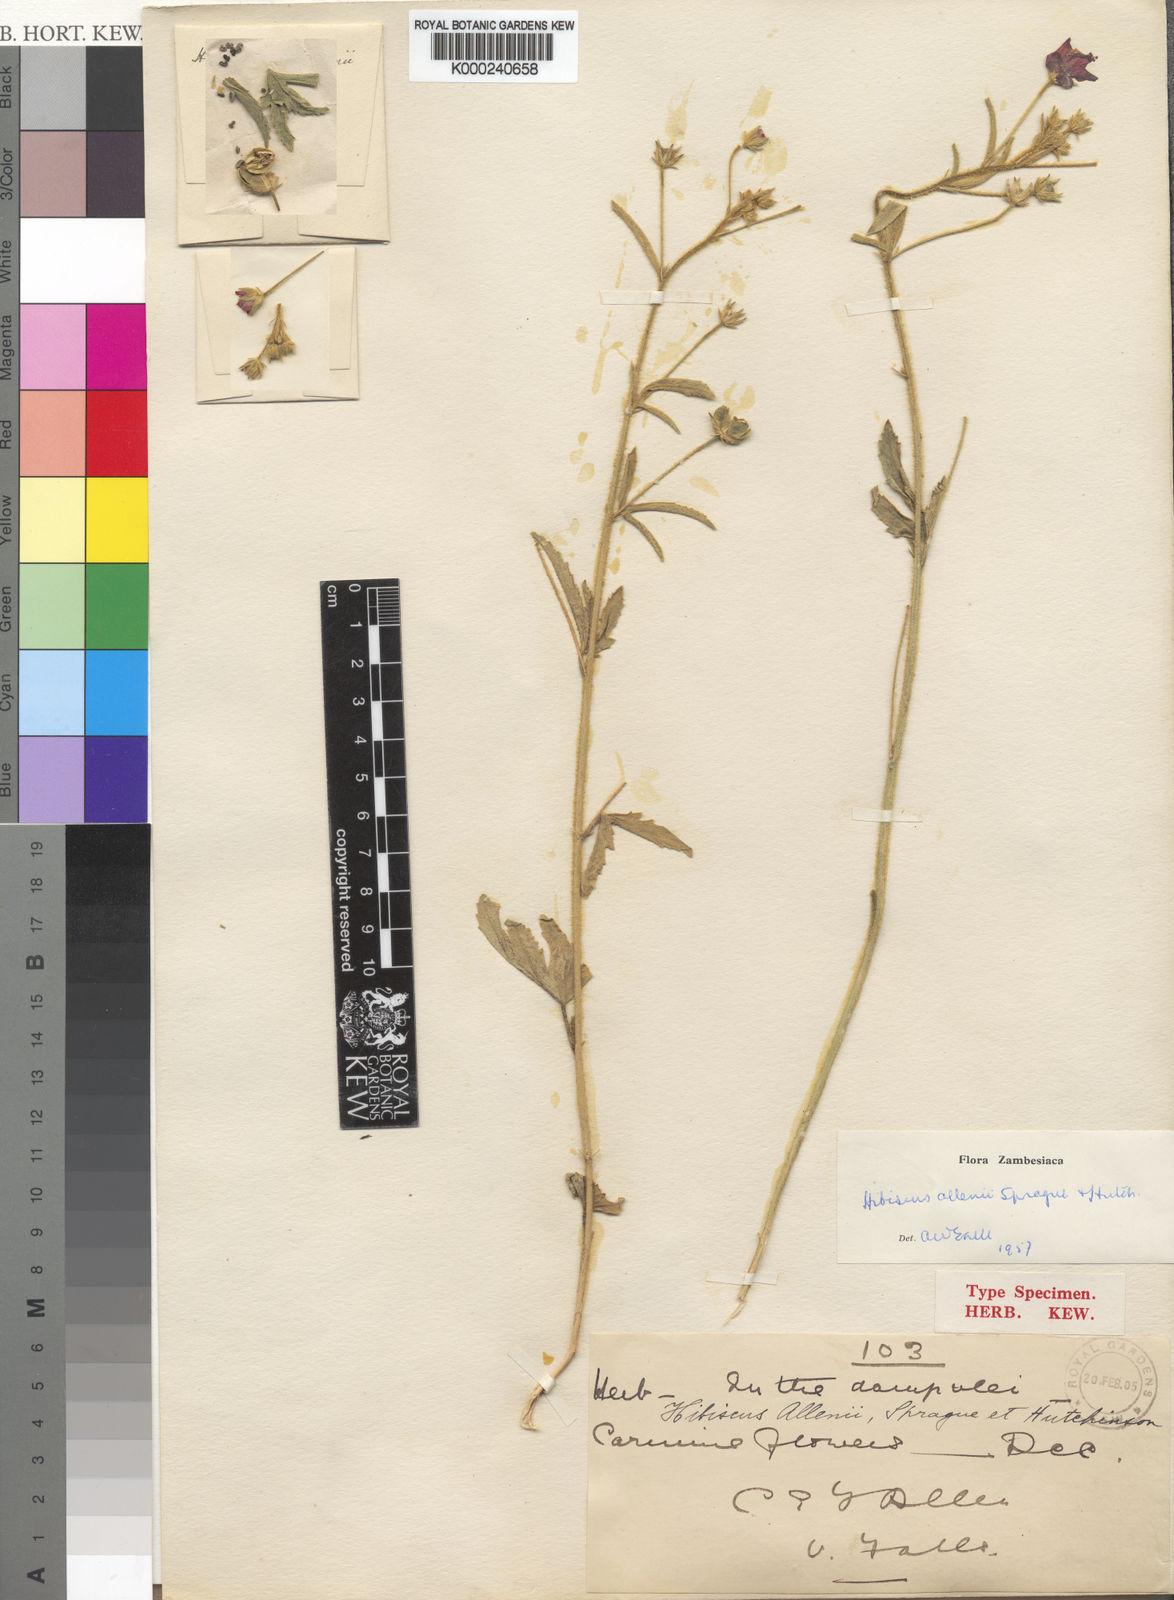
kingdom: Plantae
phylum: Tracheophyta
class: Magnoliopsida
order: Malvales
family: Malvaceae
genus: Hibiscus
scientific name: Hibiscus allenii
